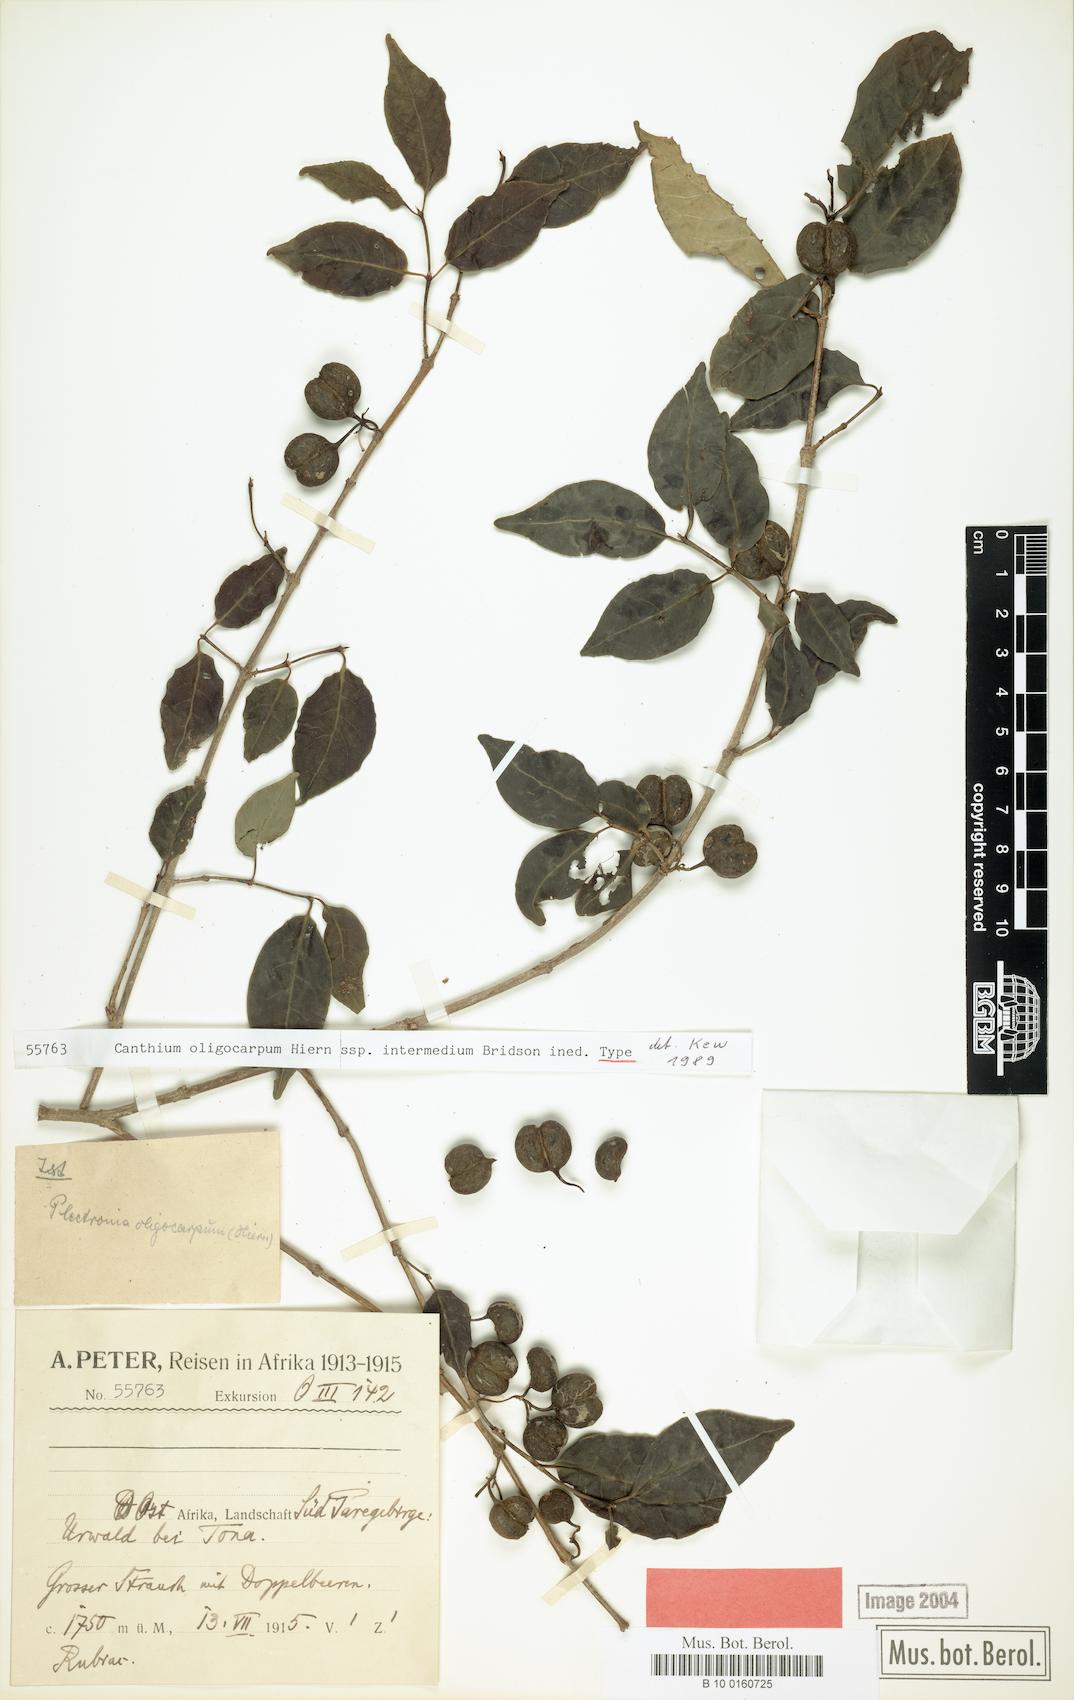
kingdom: Plantae
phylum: Tracheophyta
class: Magnoliopsida
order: Gentianales
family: Rubiaceae
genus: Canthium
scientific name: Canthium oligocarpum
